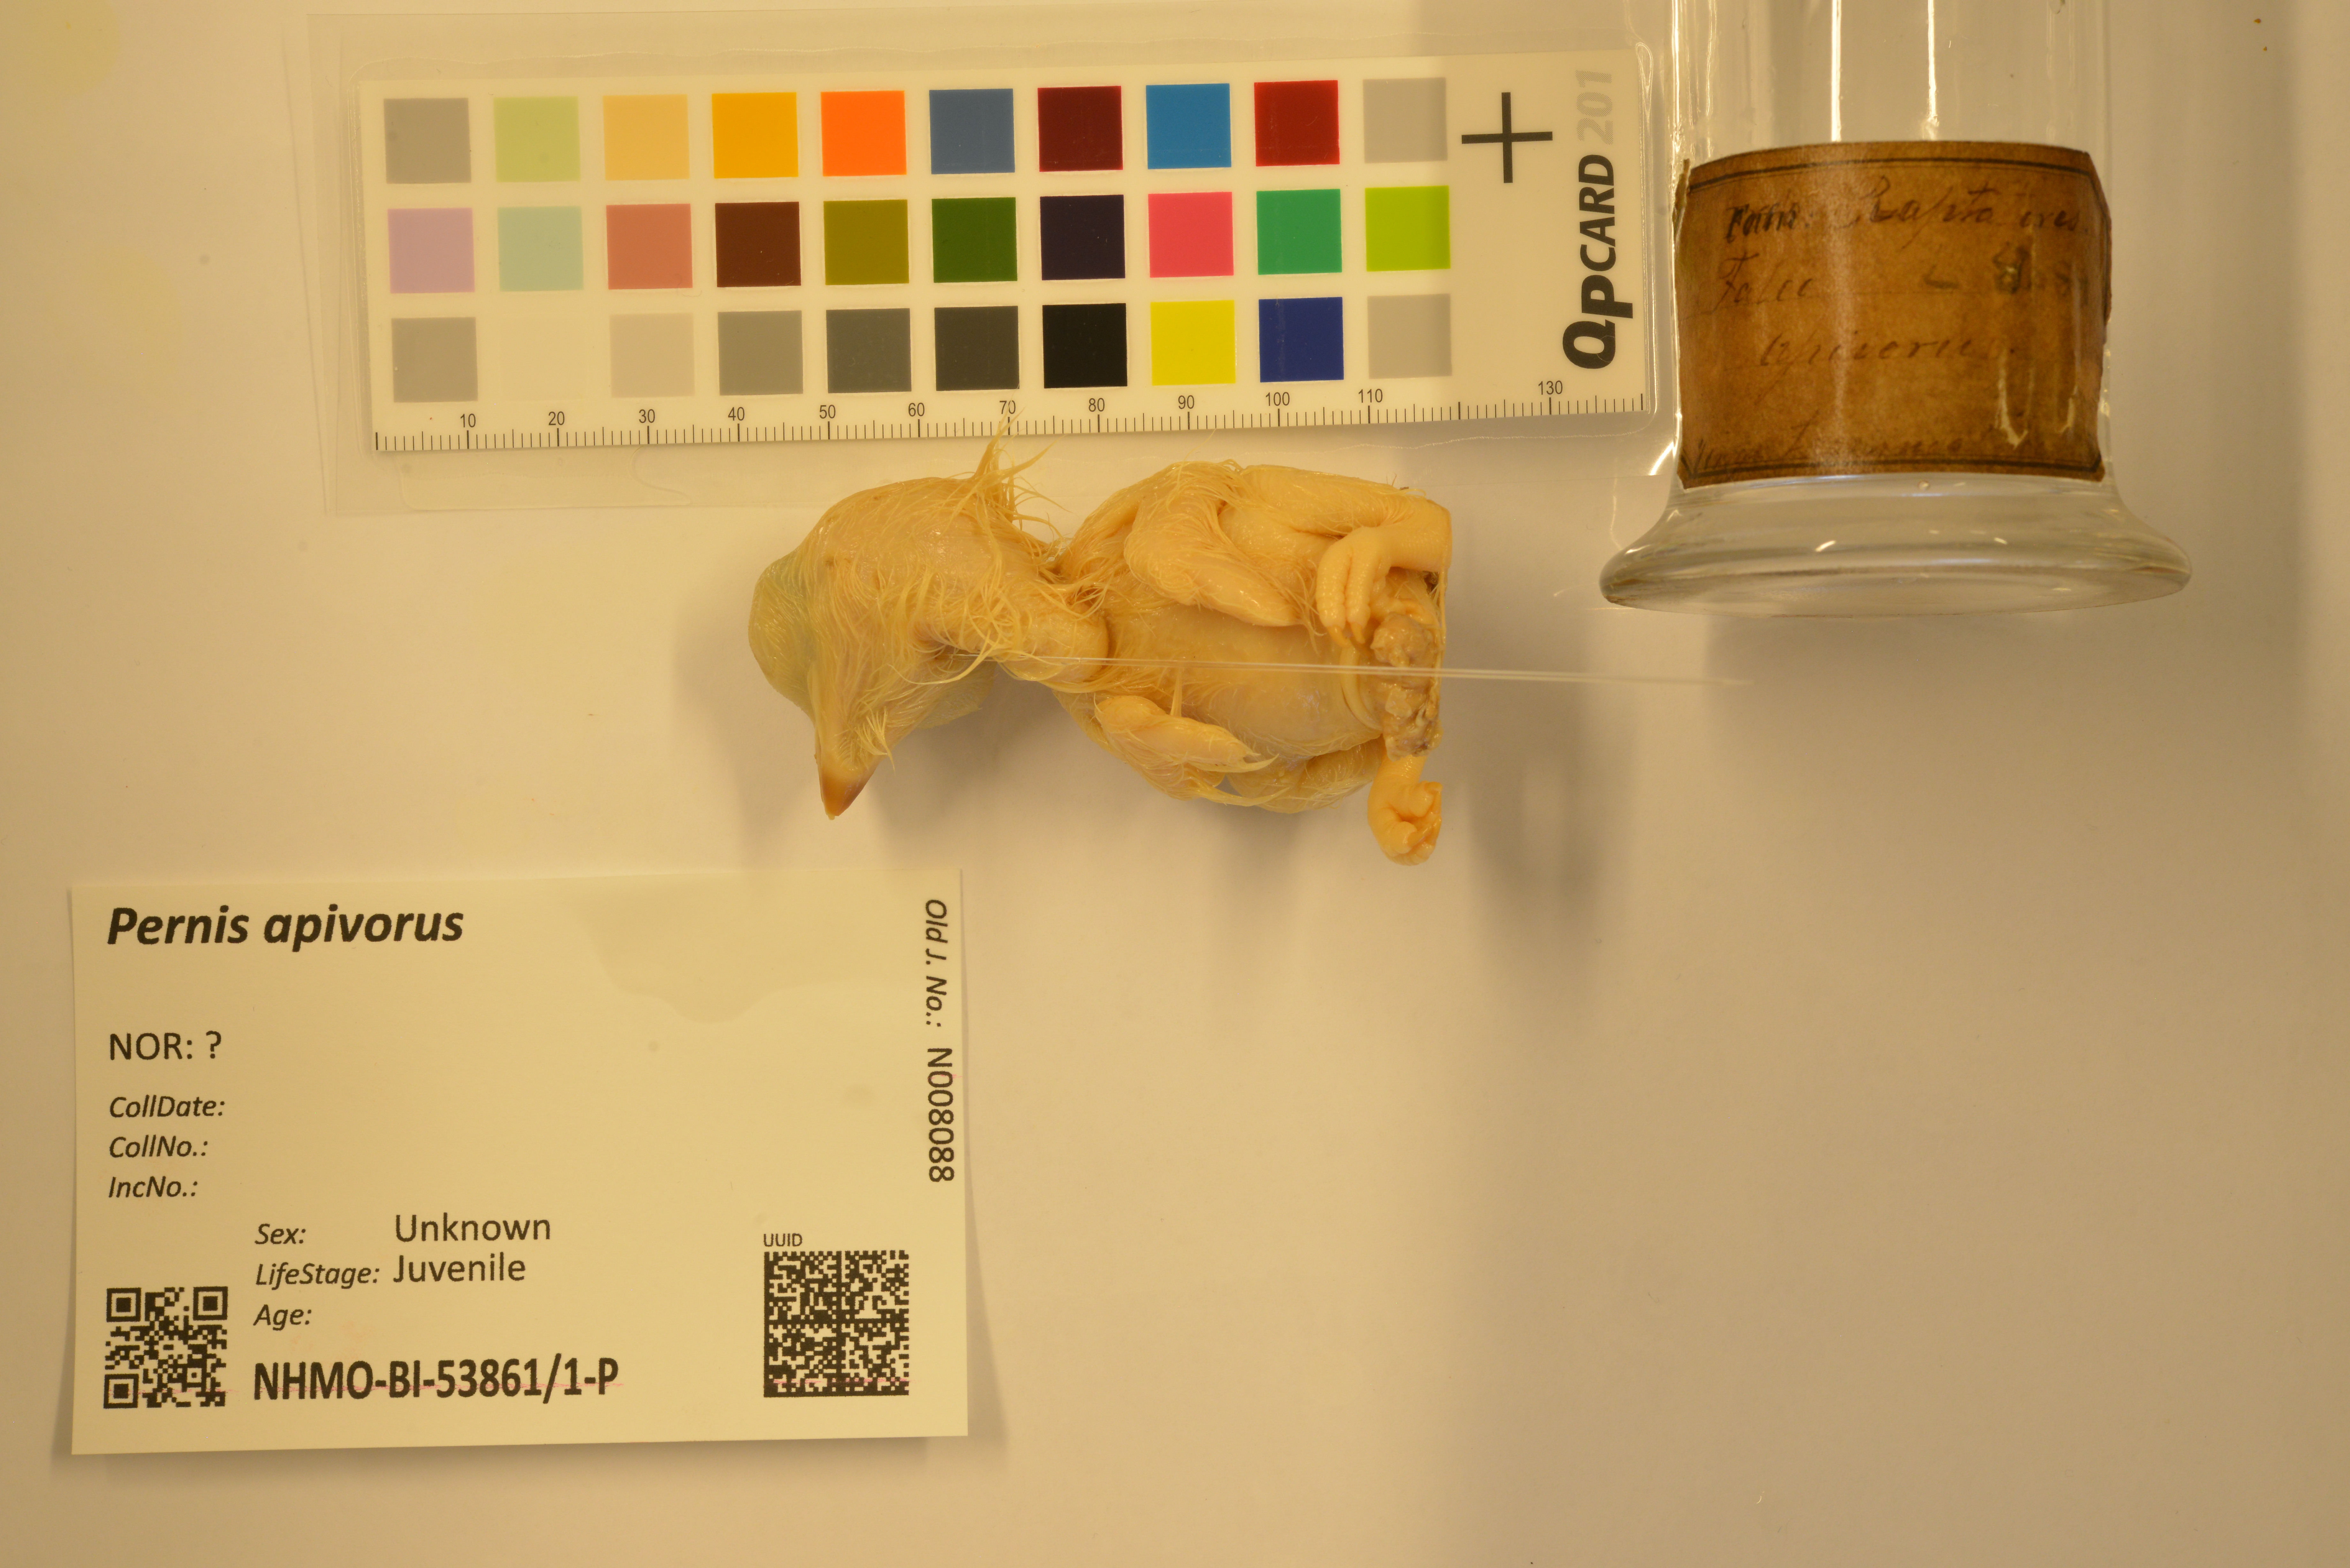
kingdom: Animalia
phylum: Chordata
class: Aves
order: Accipitriformes
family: Accipitridae
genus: Pernis
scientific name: Pernis apivorus
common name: European honey buzzard
